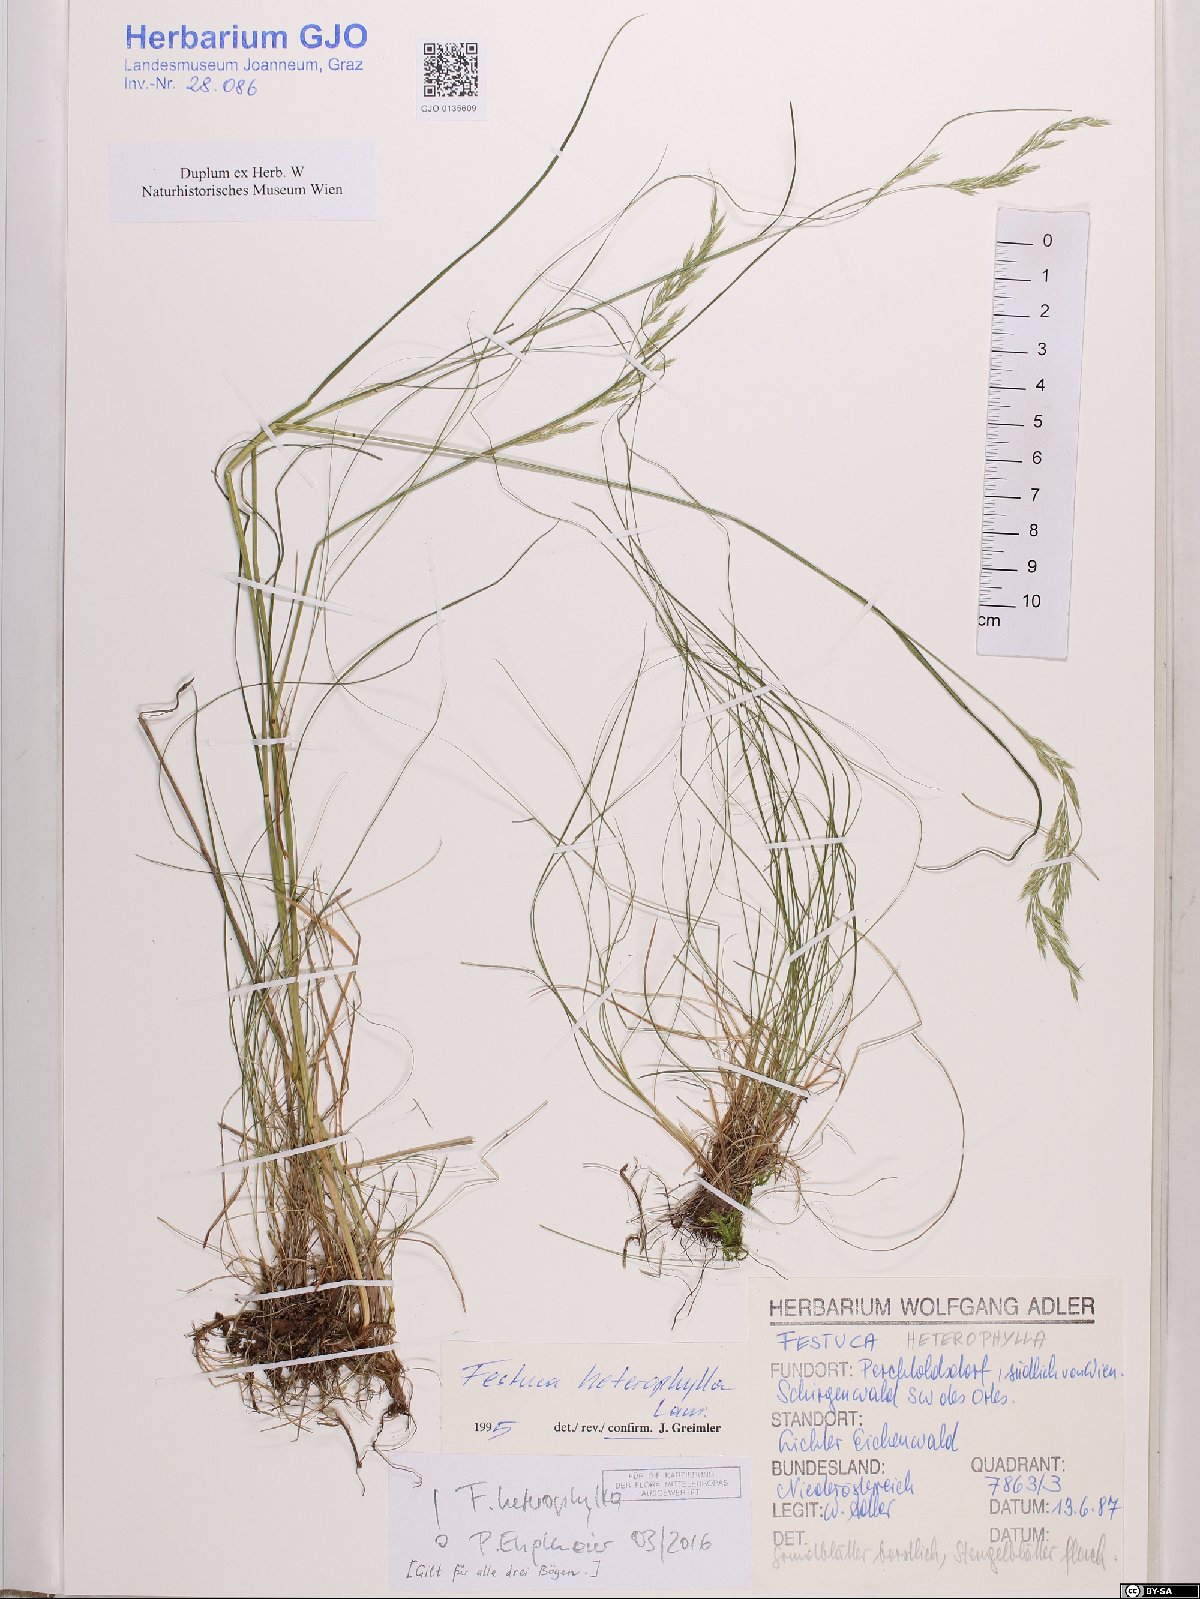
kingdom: Plantae
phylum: Tracheophyta
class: Liliopsida
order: Poales
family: Poaceae
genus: Festuca
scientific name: Festuca heterophylla
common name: Various-leaved fescue
